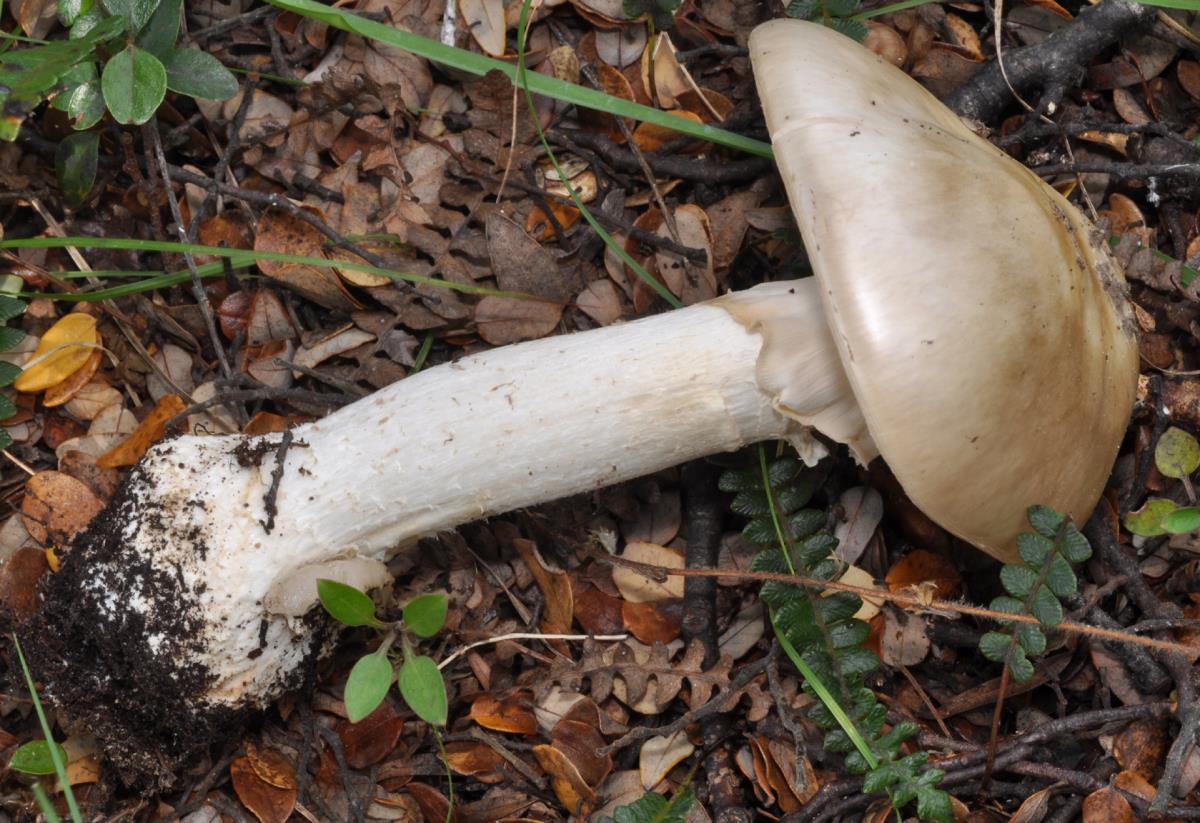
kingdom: Fungi
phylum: Basidiomycota
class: Agaricomycetes
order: Agaricales
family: Amanitaceae
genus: Amanita
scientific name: Amanita australis
